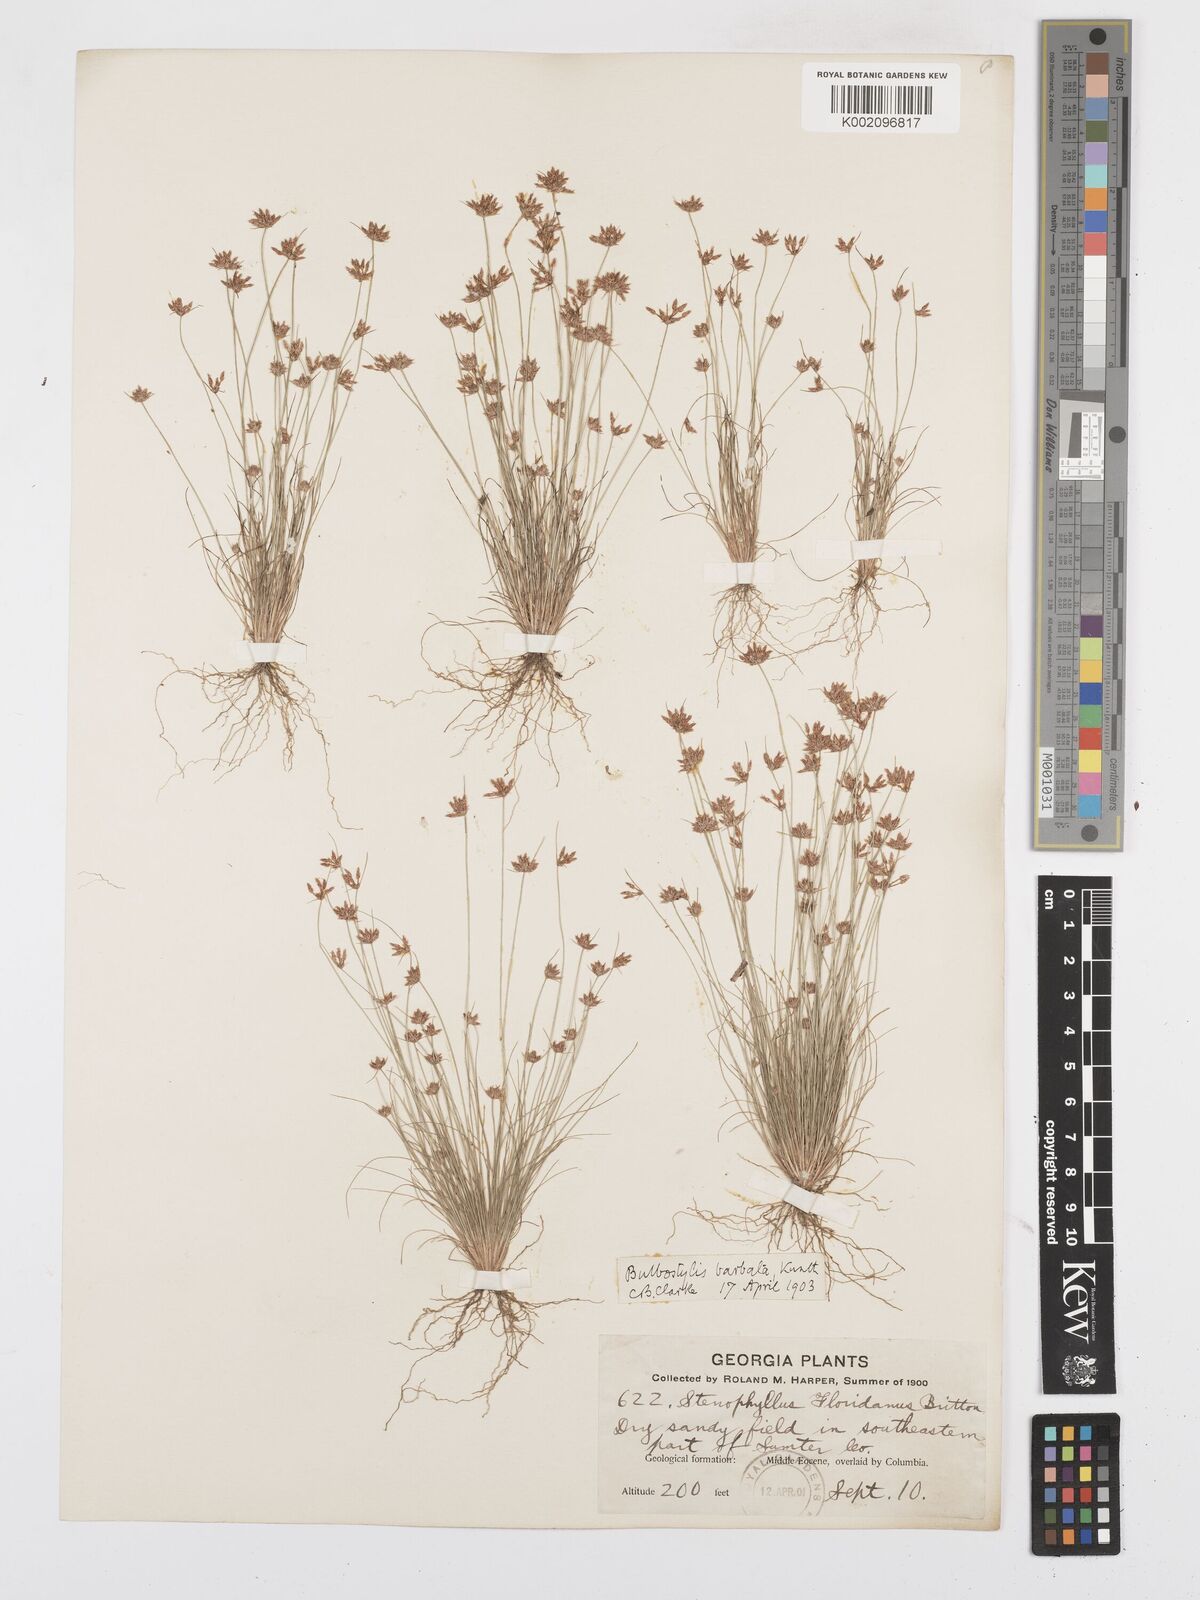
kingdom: Plantae
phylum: Tracheophyta
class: Liliopsida
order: Poales
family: Cyperaceae
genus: Bulbostylis
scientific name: Bulbostylis barbata
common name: Watergrass
